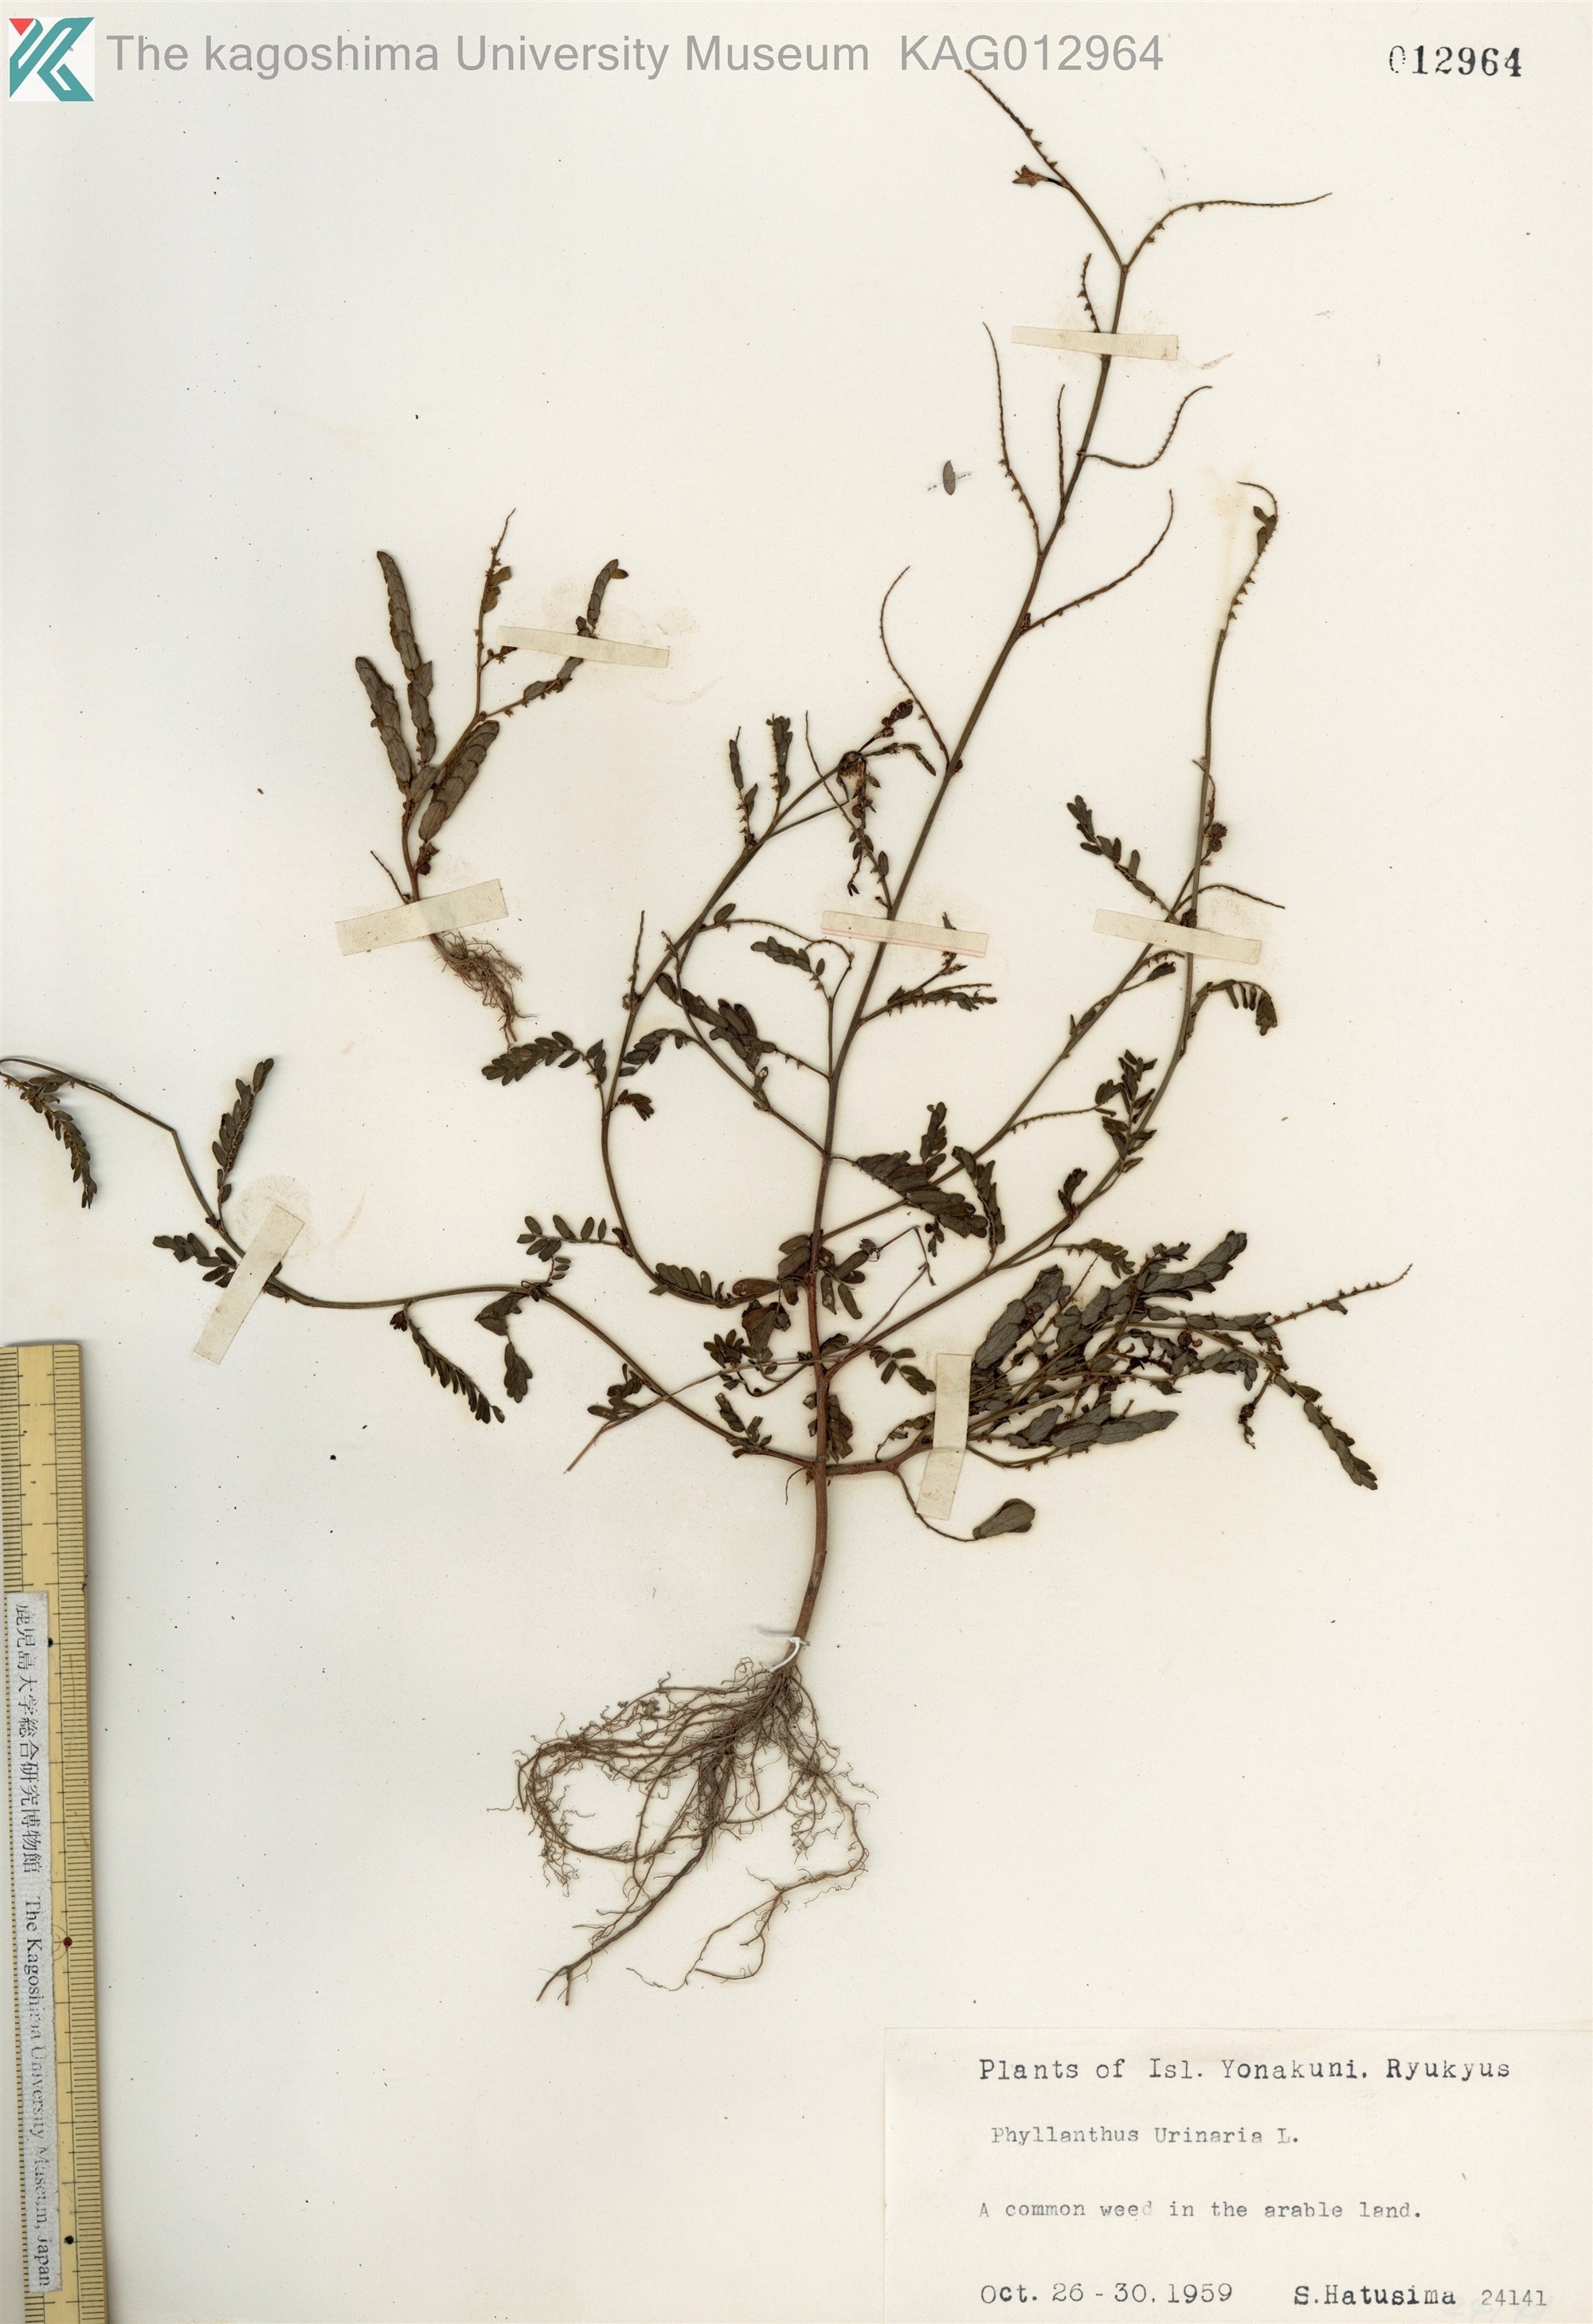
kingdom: Plantae
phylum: Tracheophyta
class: Magnoliopsida
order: Malpighiales
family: Phyllanthaceae
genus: Phyllanthus
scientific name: Phyllanthus urinaria
